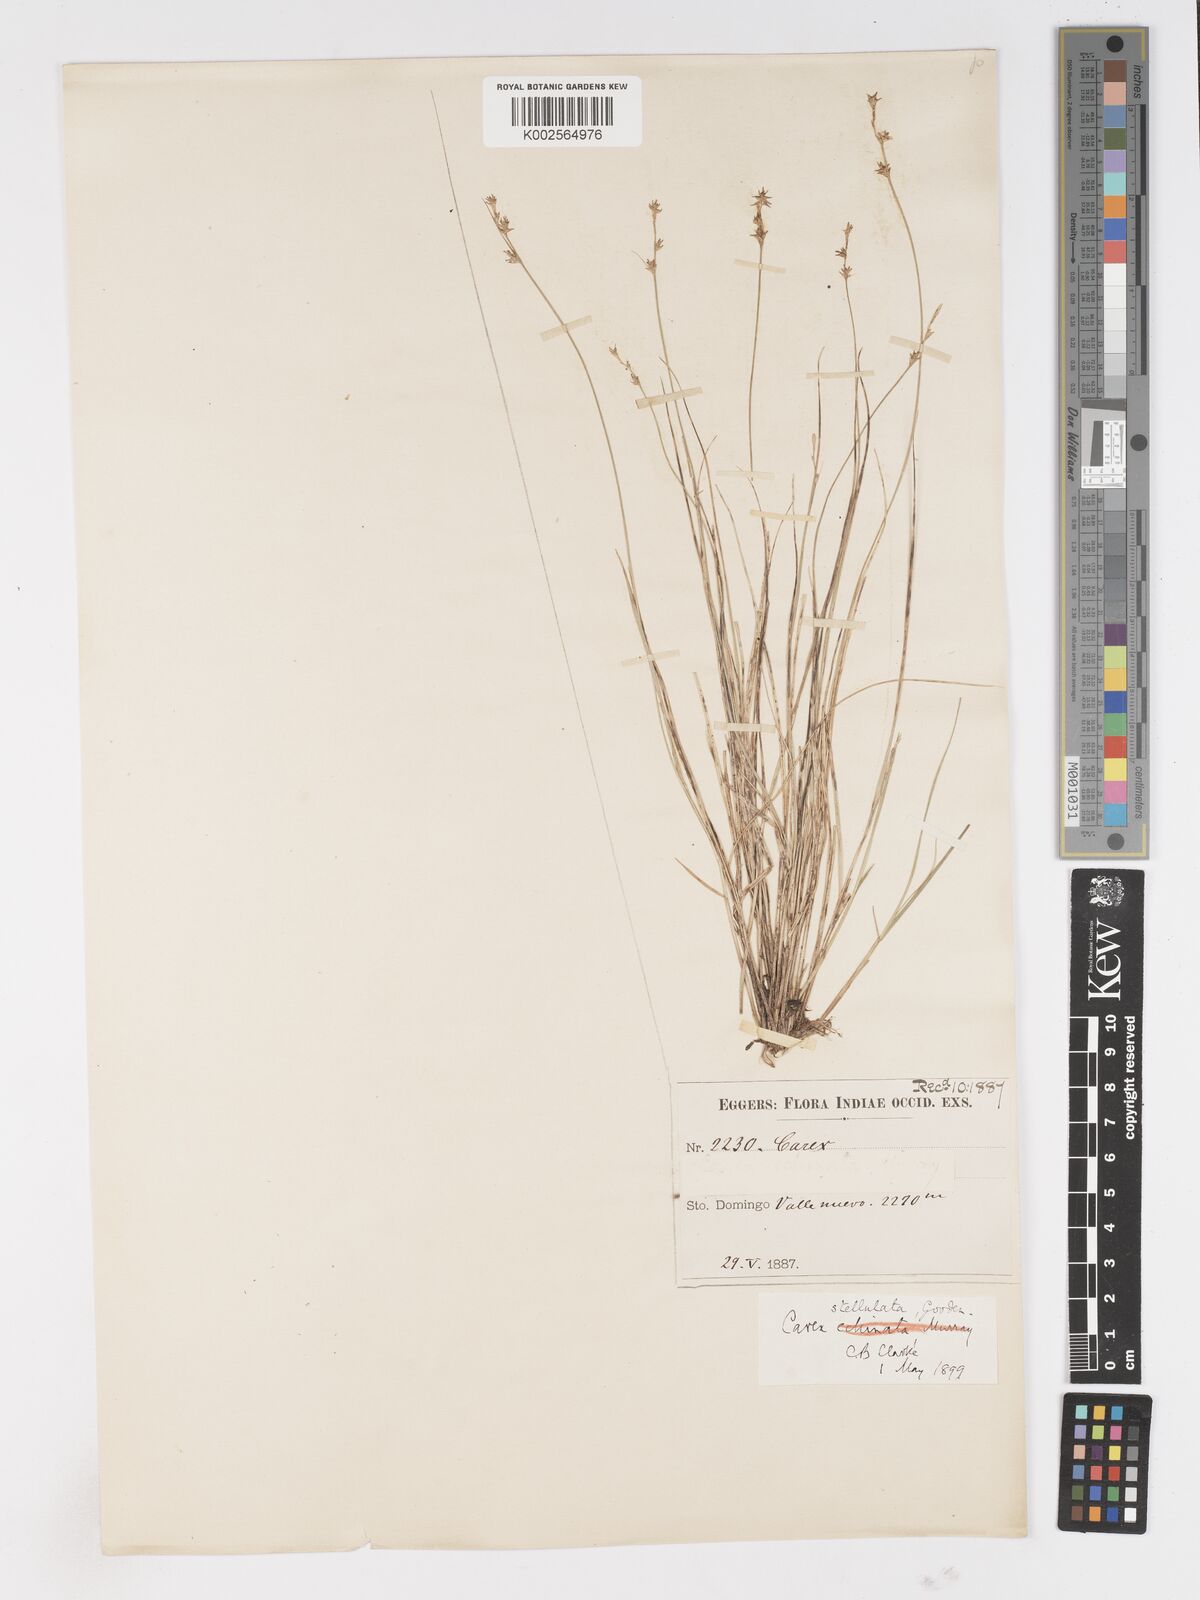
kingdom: Plantae
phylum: Tracheophyta
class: Liliopsida
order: Poales
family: Cyperaceae
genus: Carex
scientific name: Carex echinata
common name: Star sedge
